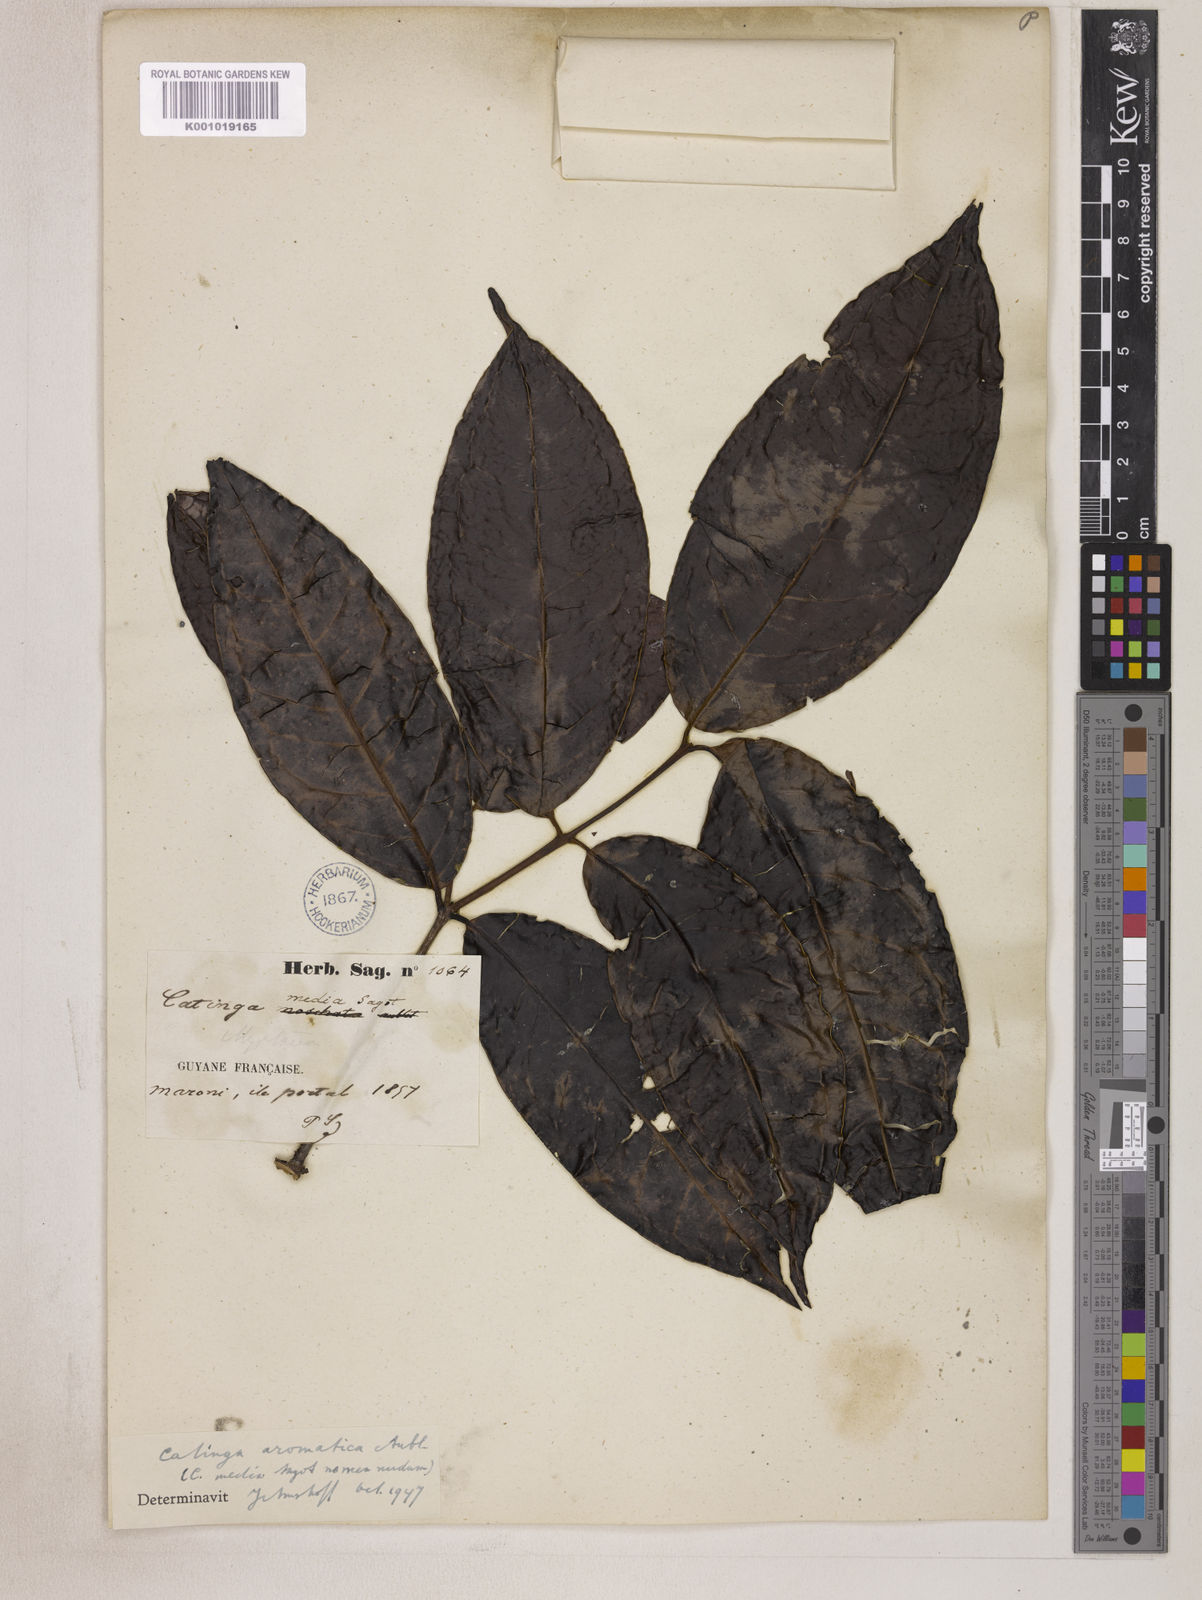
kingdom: Plantae
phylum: Tracheophyta
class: Magnoliopsida
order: Myrtales
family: Myrtaceae
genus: Eugenia
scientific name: Eugenia moschata
